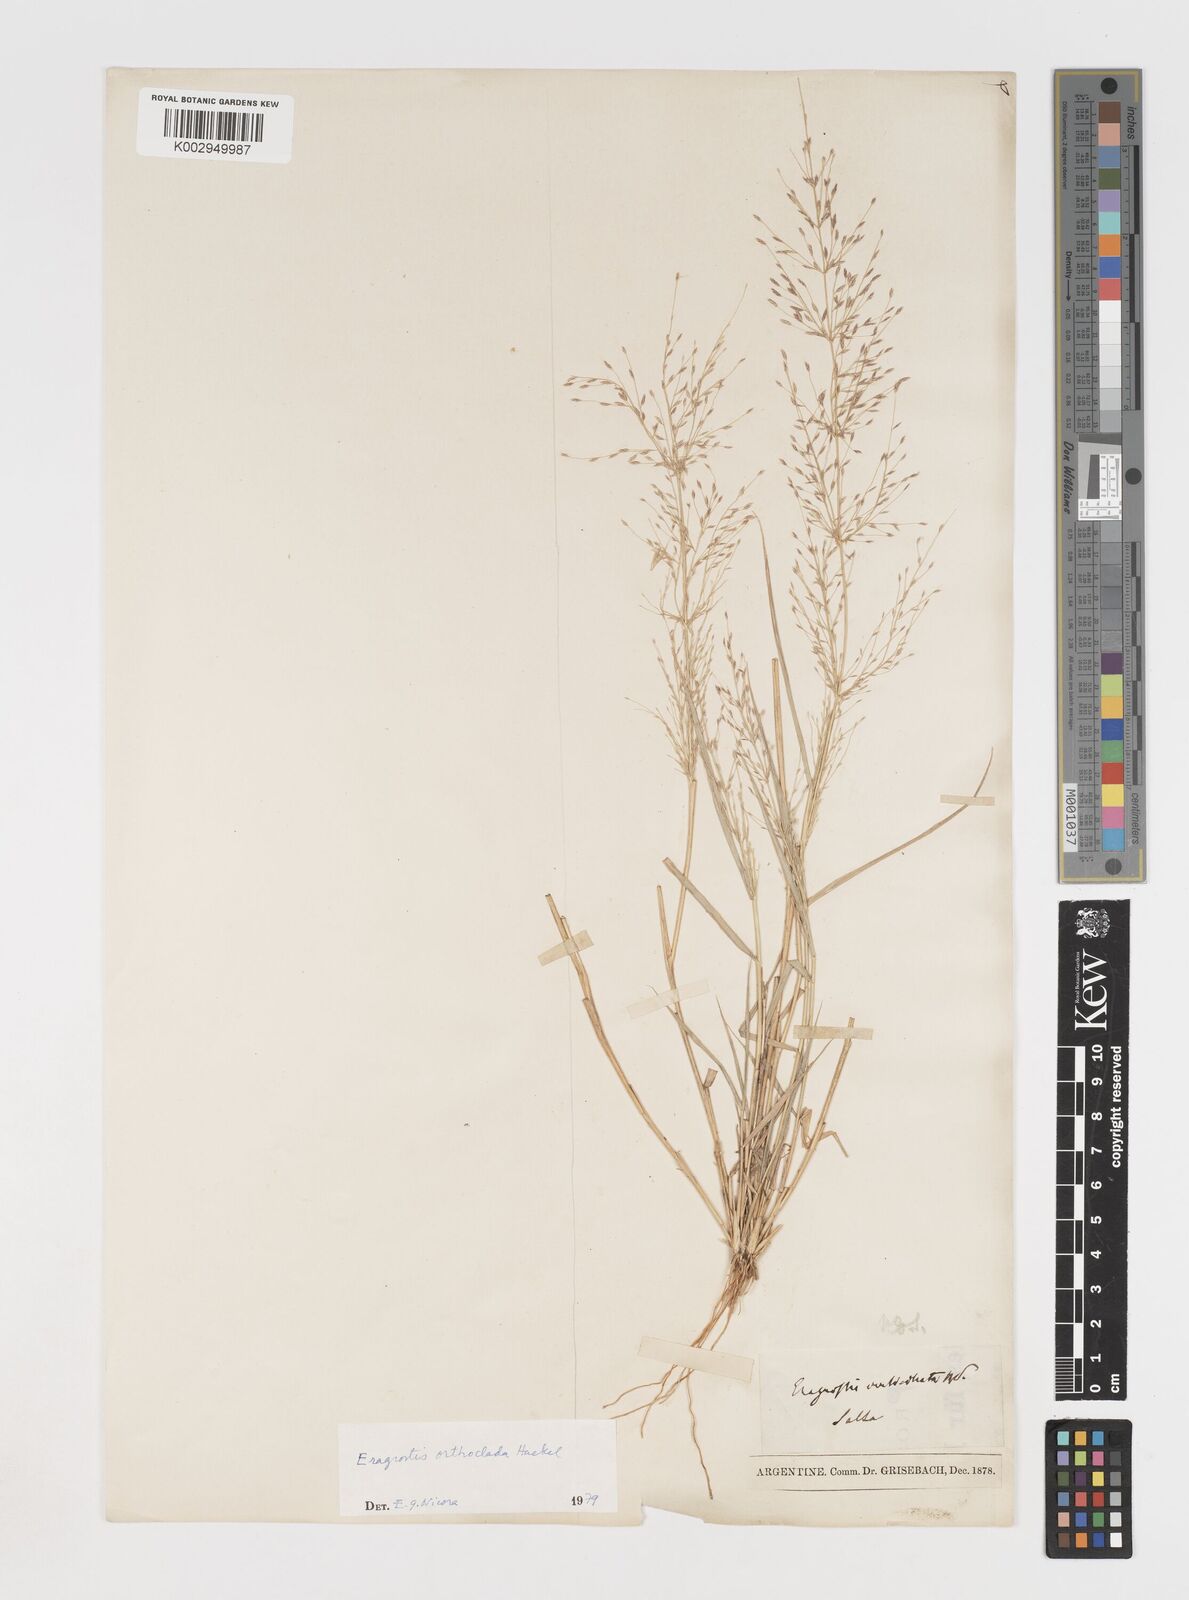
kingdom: Plantae
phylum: Tracheophyta
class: Liliopsida
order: Poales
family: Poaceae
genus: Eragrostis
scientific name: Eragrostis orthoclada
